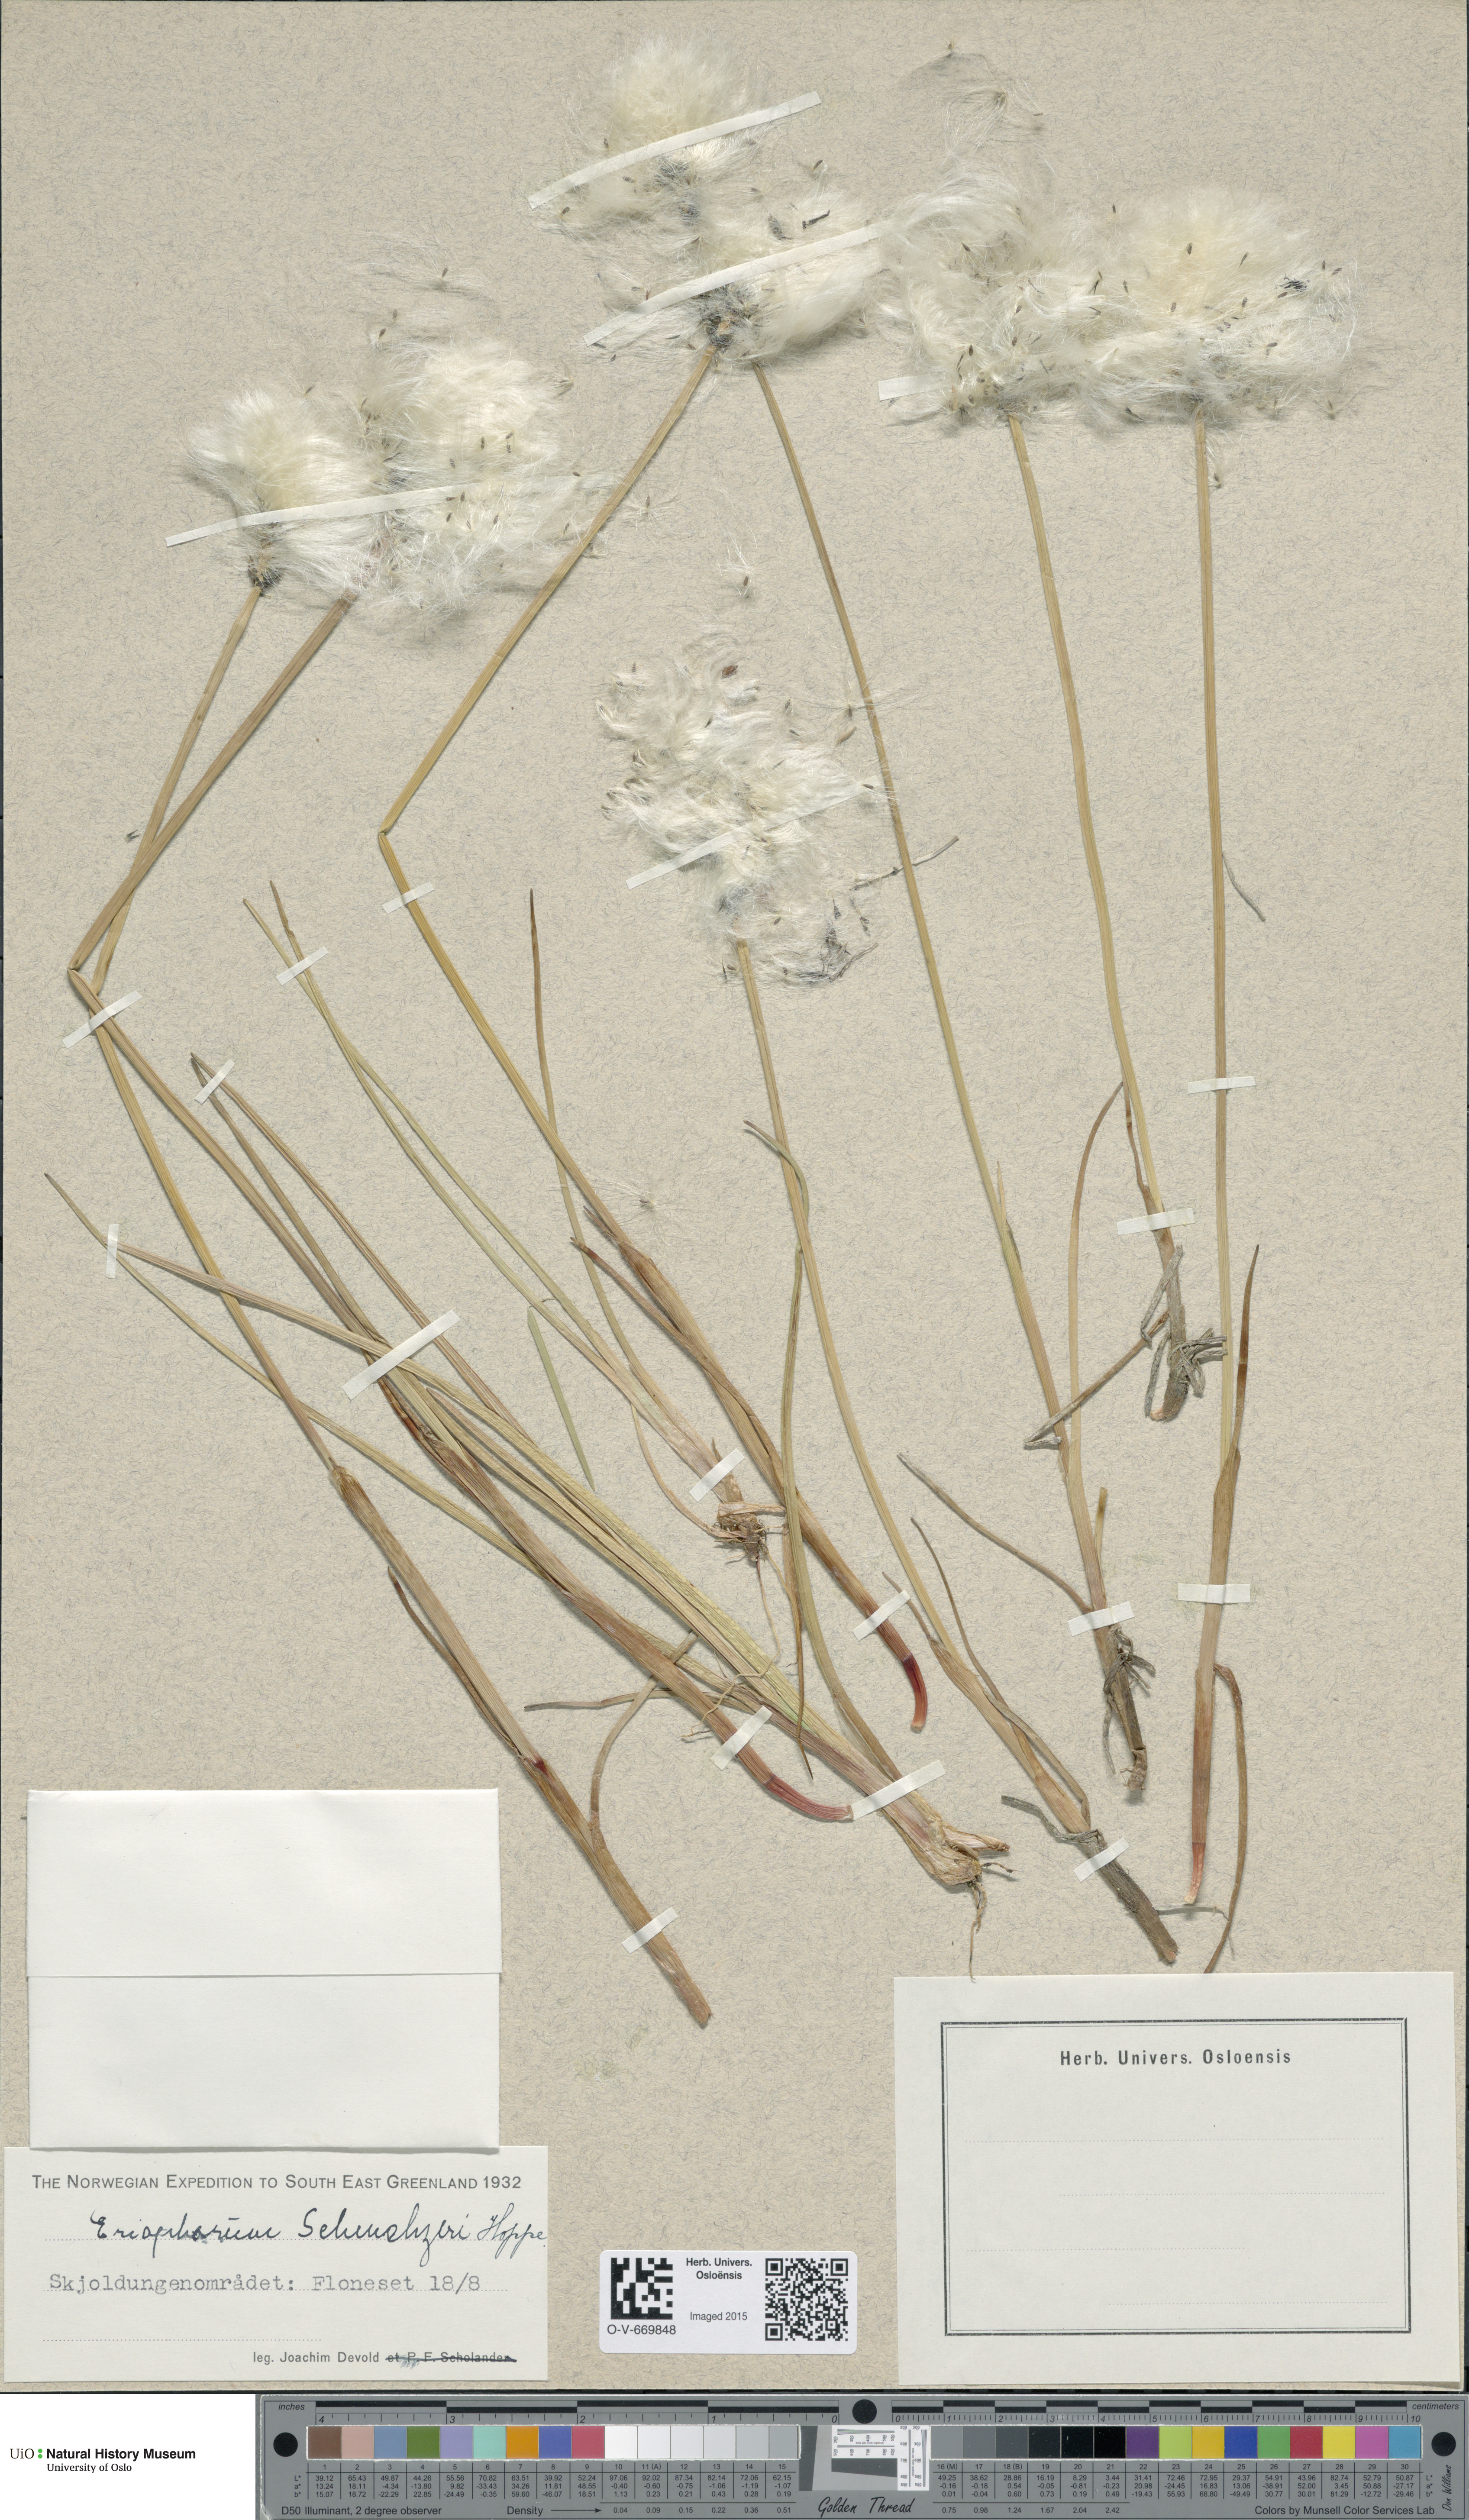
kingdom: Plantae
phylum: Tracheophyta
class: Liliopsida
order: Poales
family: Cyperaceae
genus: Eriophorum
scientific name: Eriophorum scheuchzeri
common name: Scheuchzer's cottongrass
